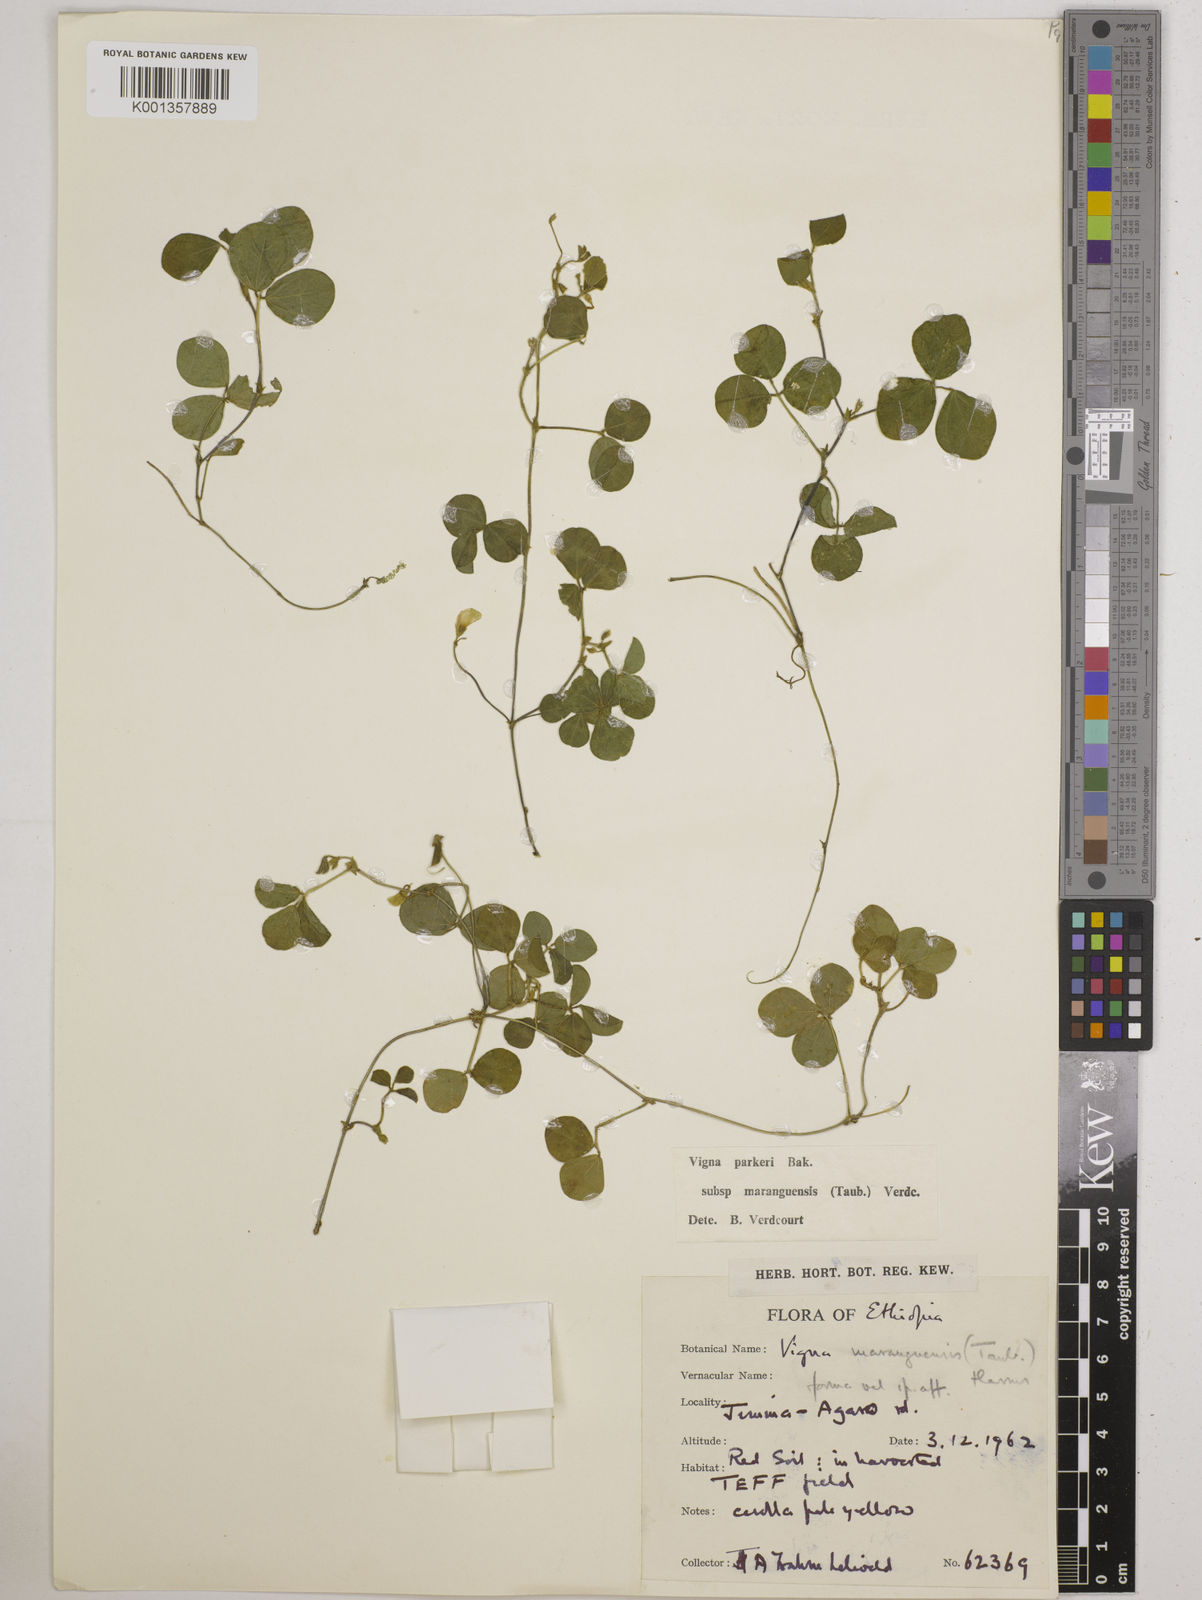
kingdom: Plantae
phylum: Tracheophyta
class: Magnoliopsida
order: Fabales
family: Fabaceae
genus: Vigna
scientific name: Vigna
